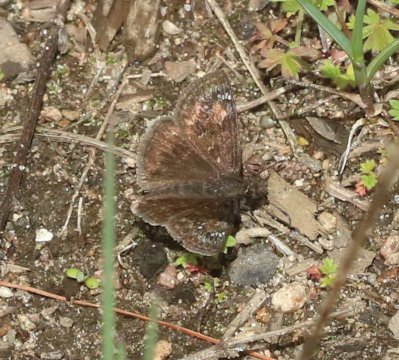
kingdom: Animalia
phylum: Arthropoda
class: Insecta
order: Lepidoptera
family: Hesperiidae
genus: Gesta
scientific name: Gesta
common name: Juvenal's Duskywing
